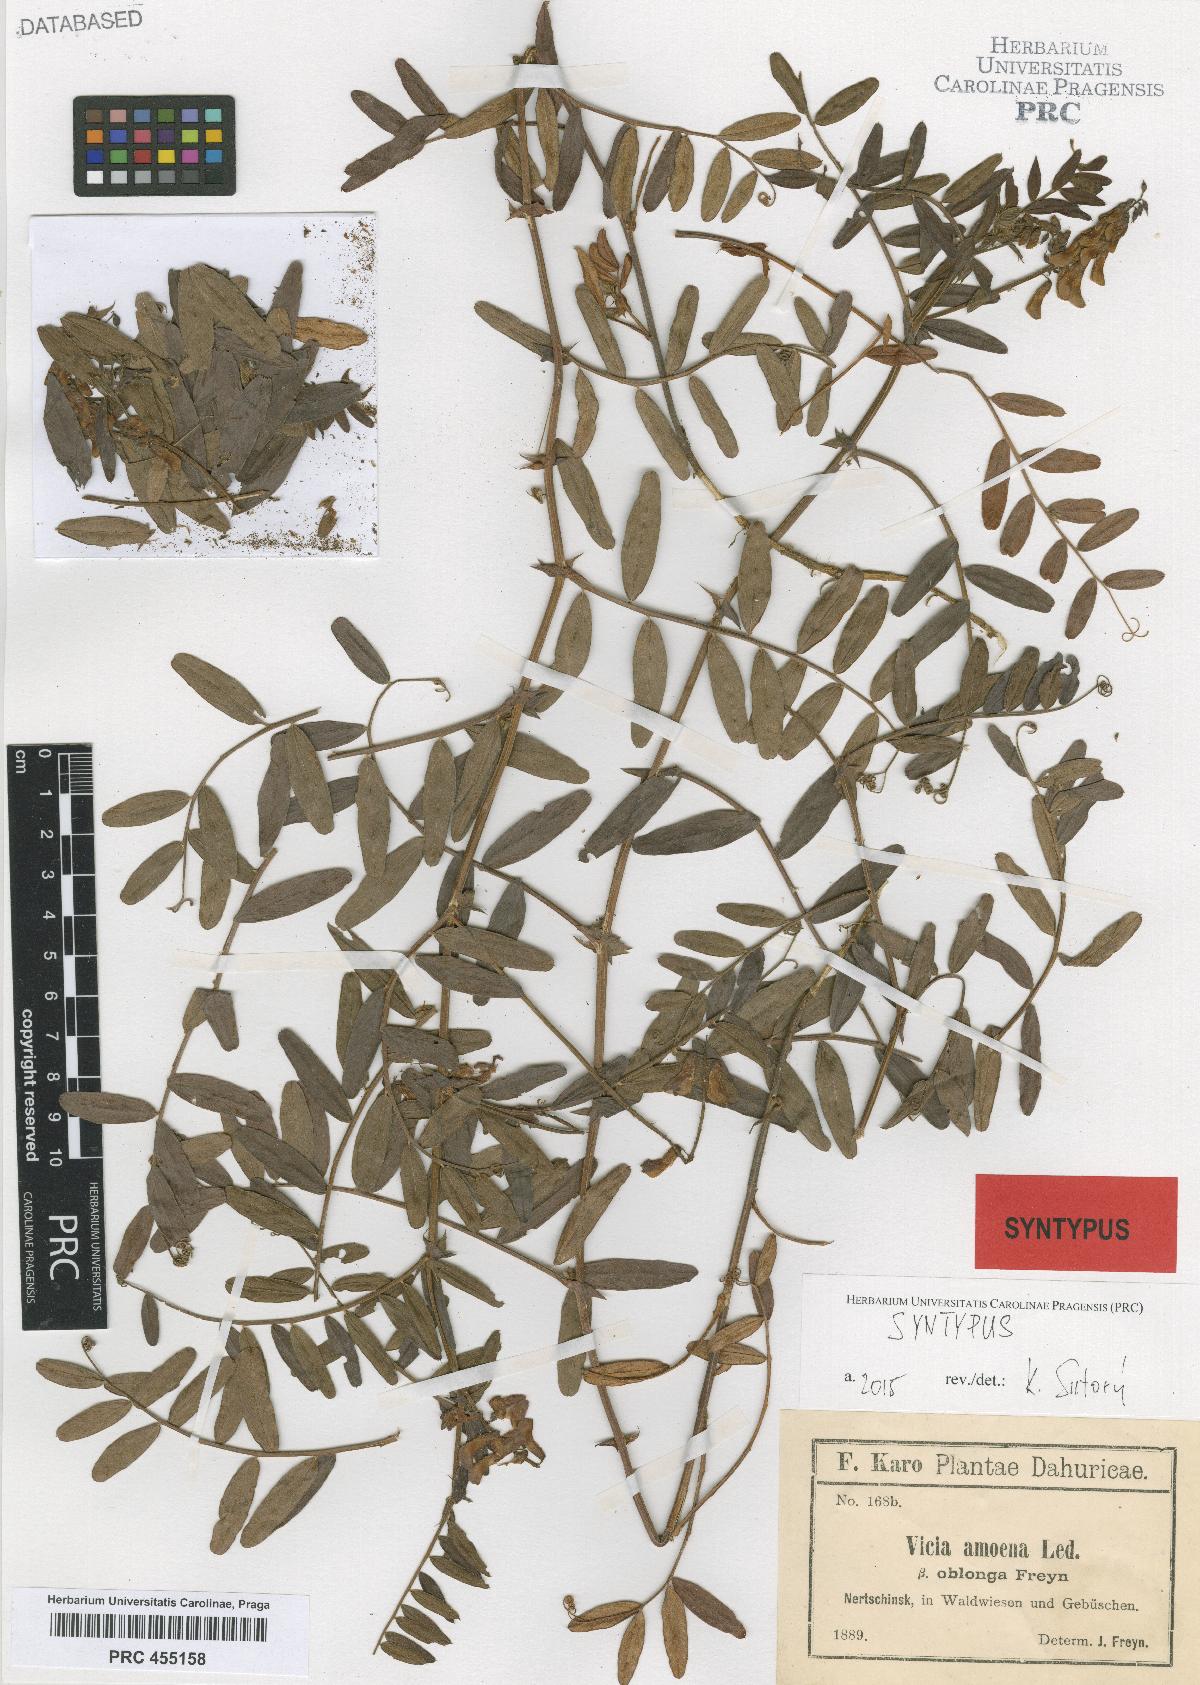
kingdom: Plantae
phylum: Tracheophyta
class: Magnoliopsida
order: Fabales
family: Fabaceae
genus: Vicia
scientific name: Vicia amoena
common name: Cheder ebs
